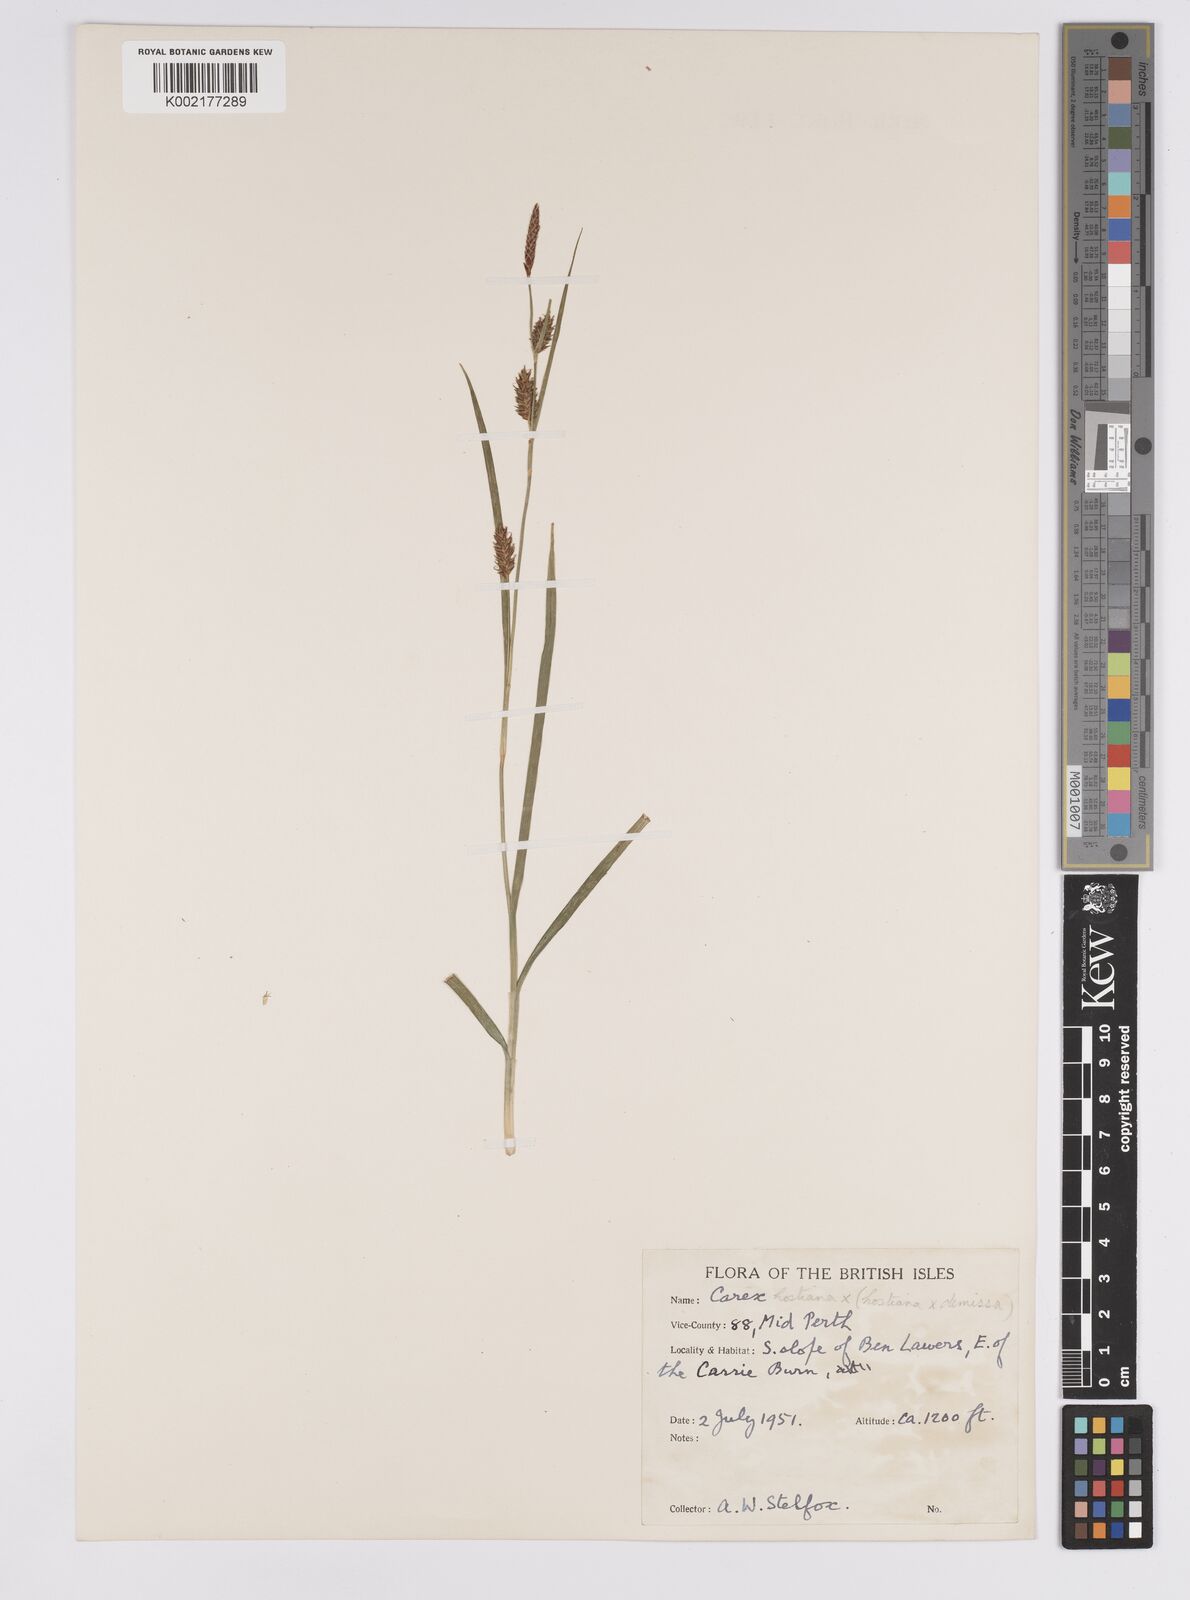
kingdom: Plantae
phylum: Tracheophyta
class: Liliopsida
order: Poales
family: Cyperaceae
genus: Carex
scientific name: Carex hostiana
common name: Tawny sedge
